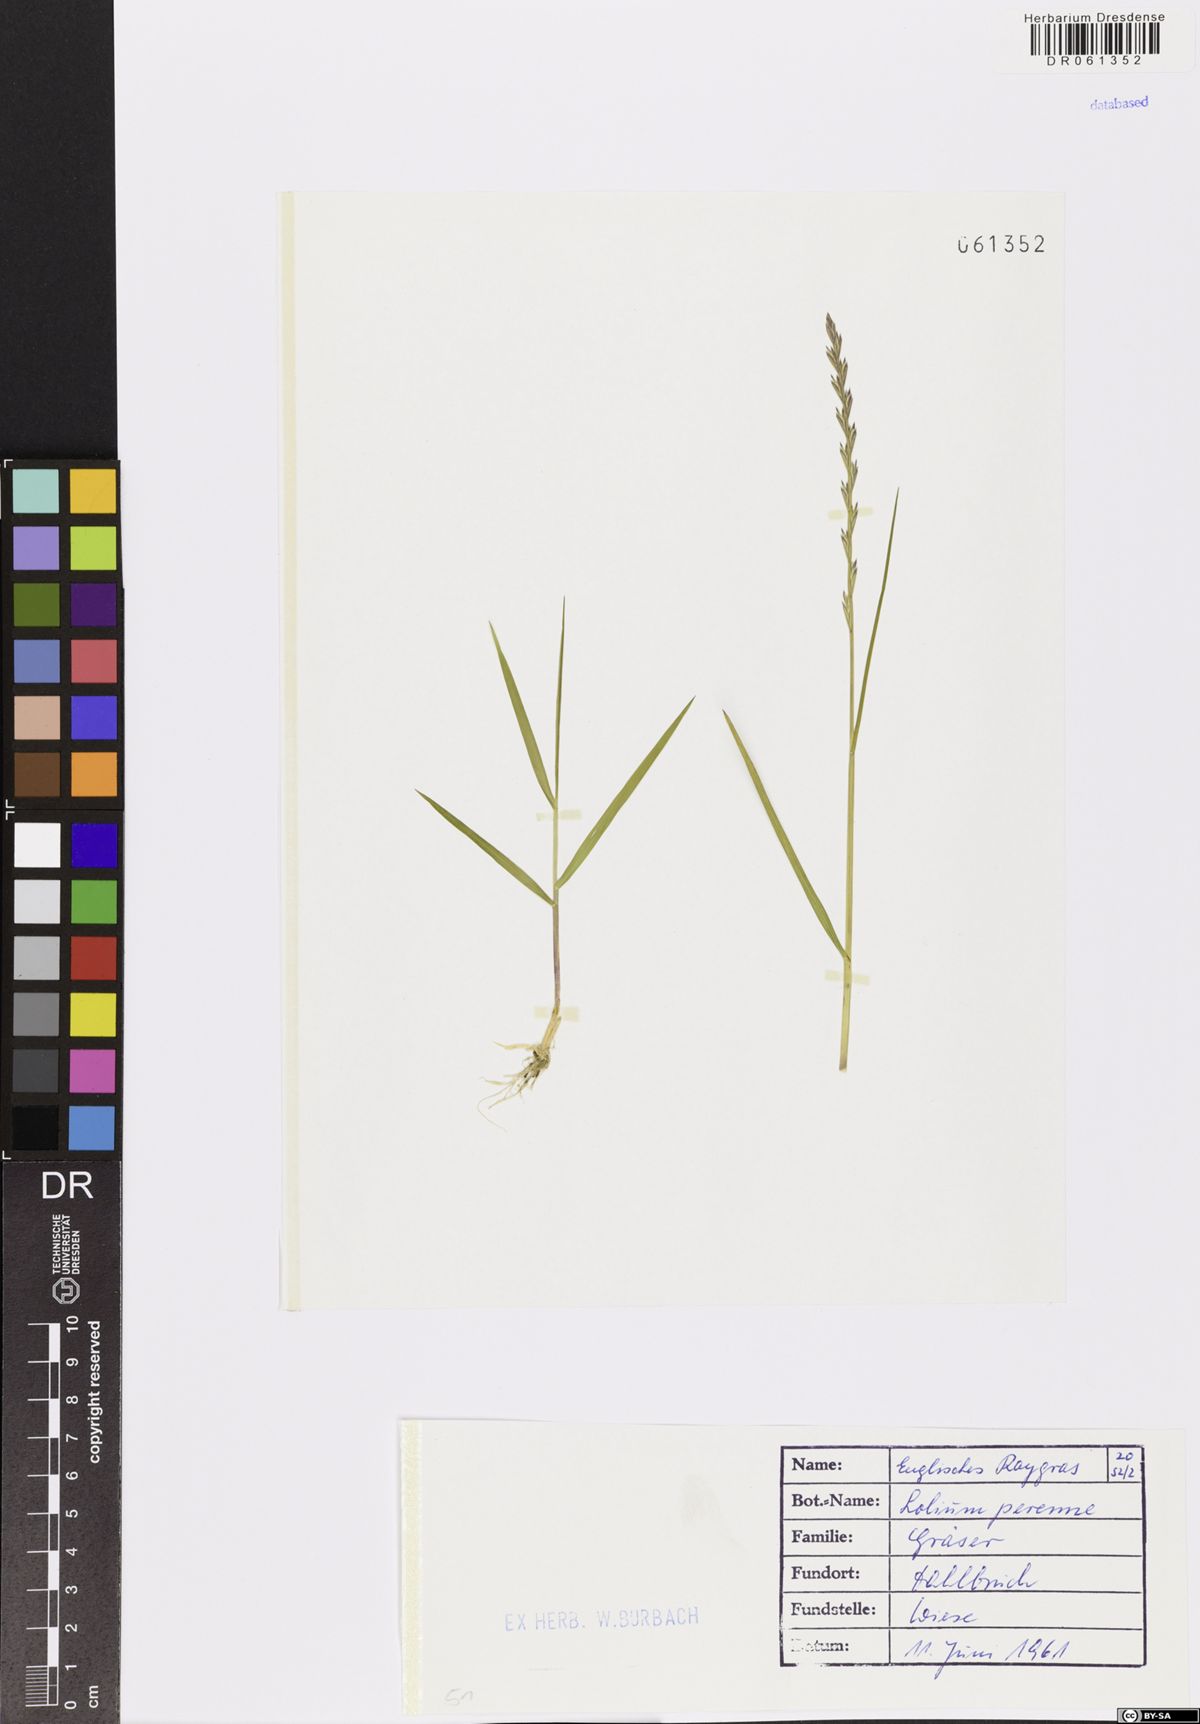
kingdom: Plantae
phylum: Tracheophyta
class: Liliopsida
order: Poales
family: Poaceae
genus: Lolium
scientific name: Lolium perenne
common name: Perennial ryegrass
